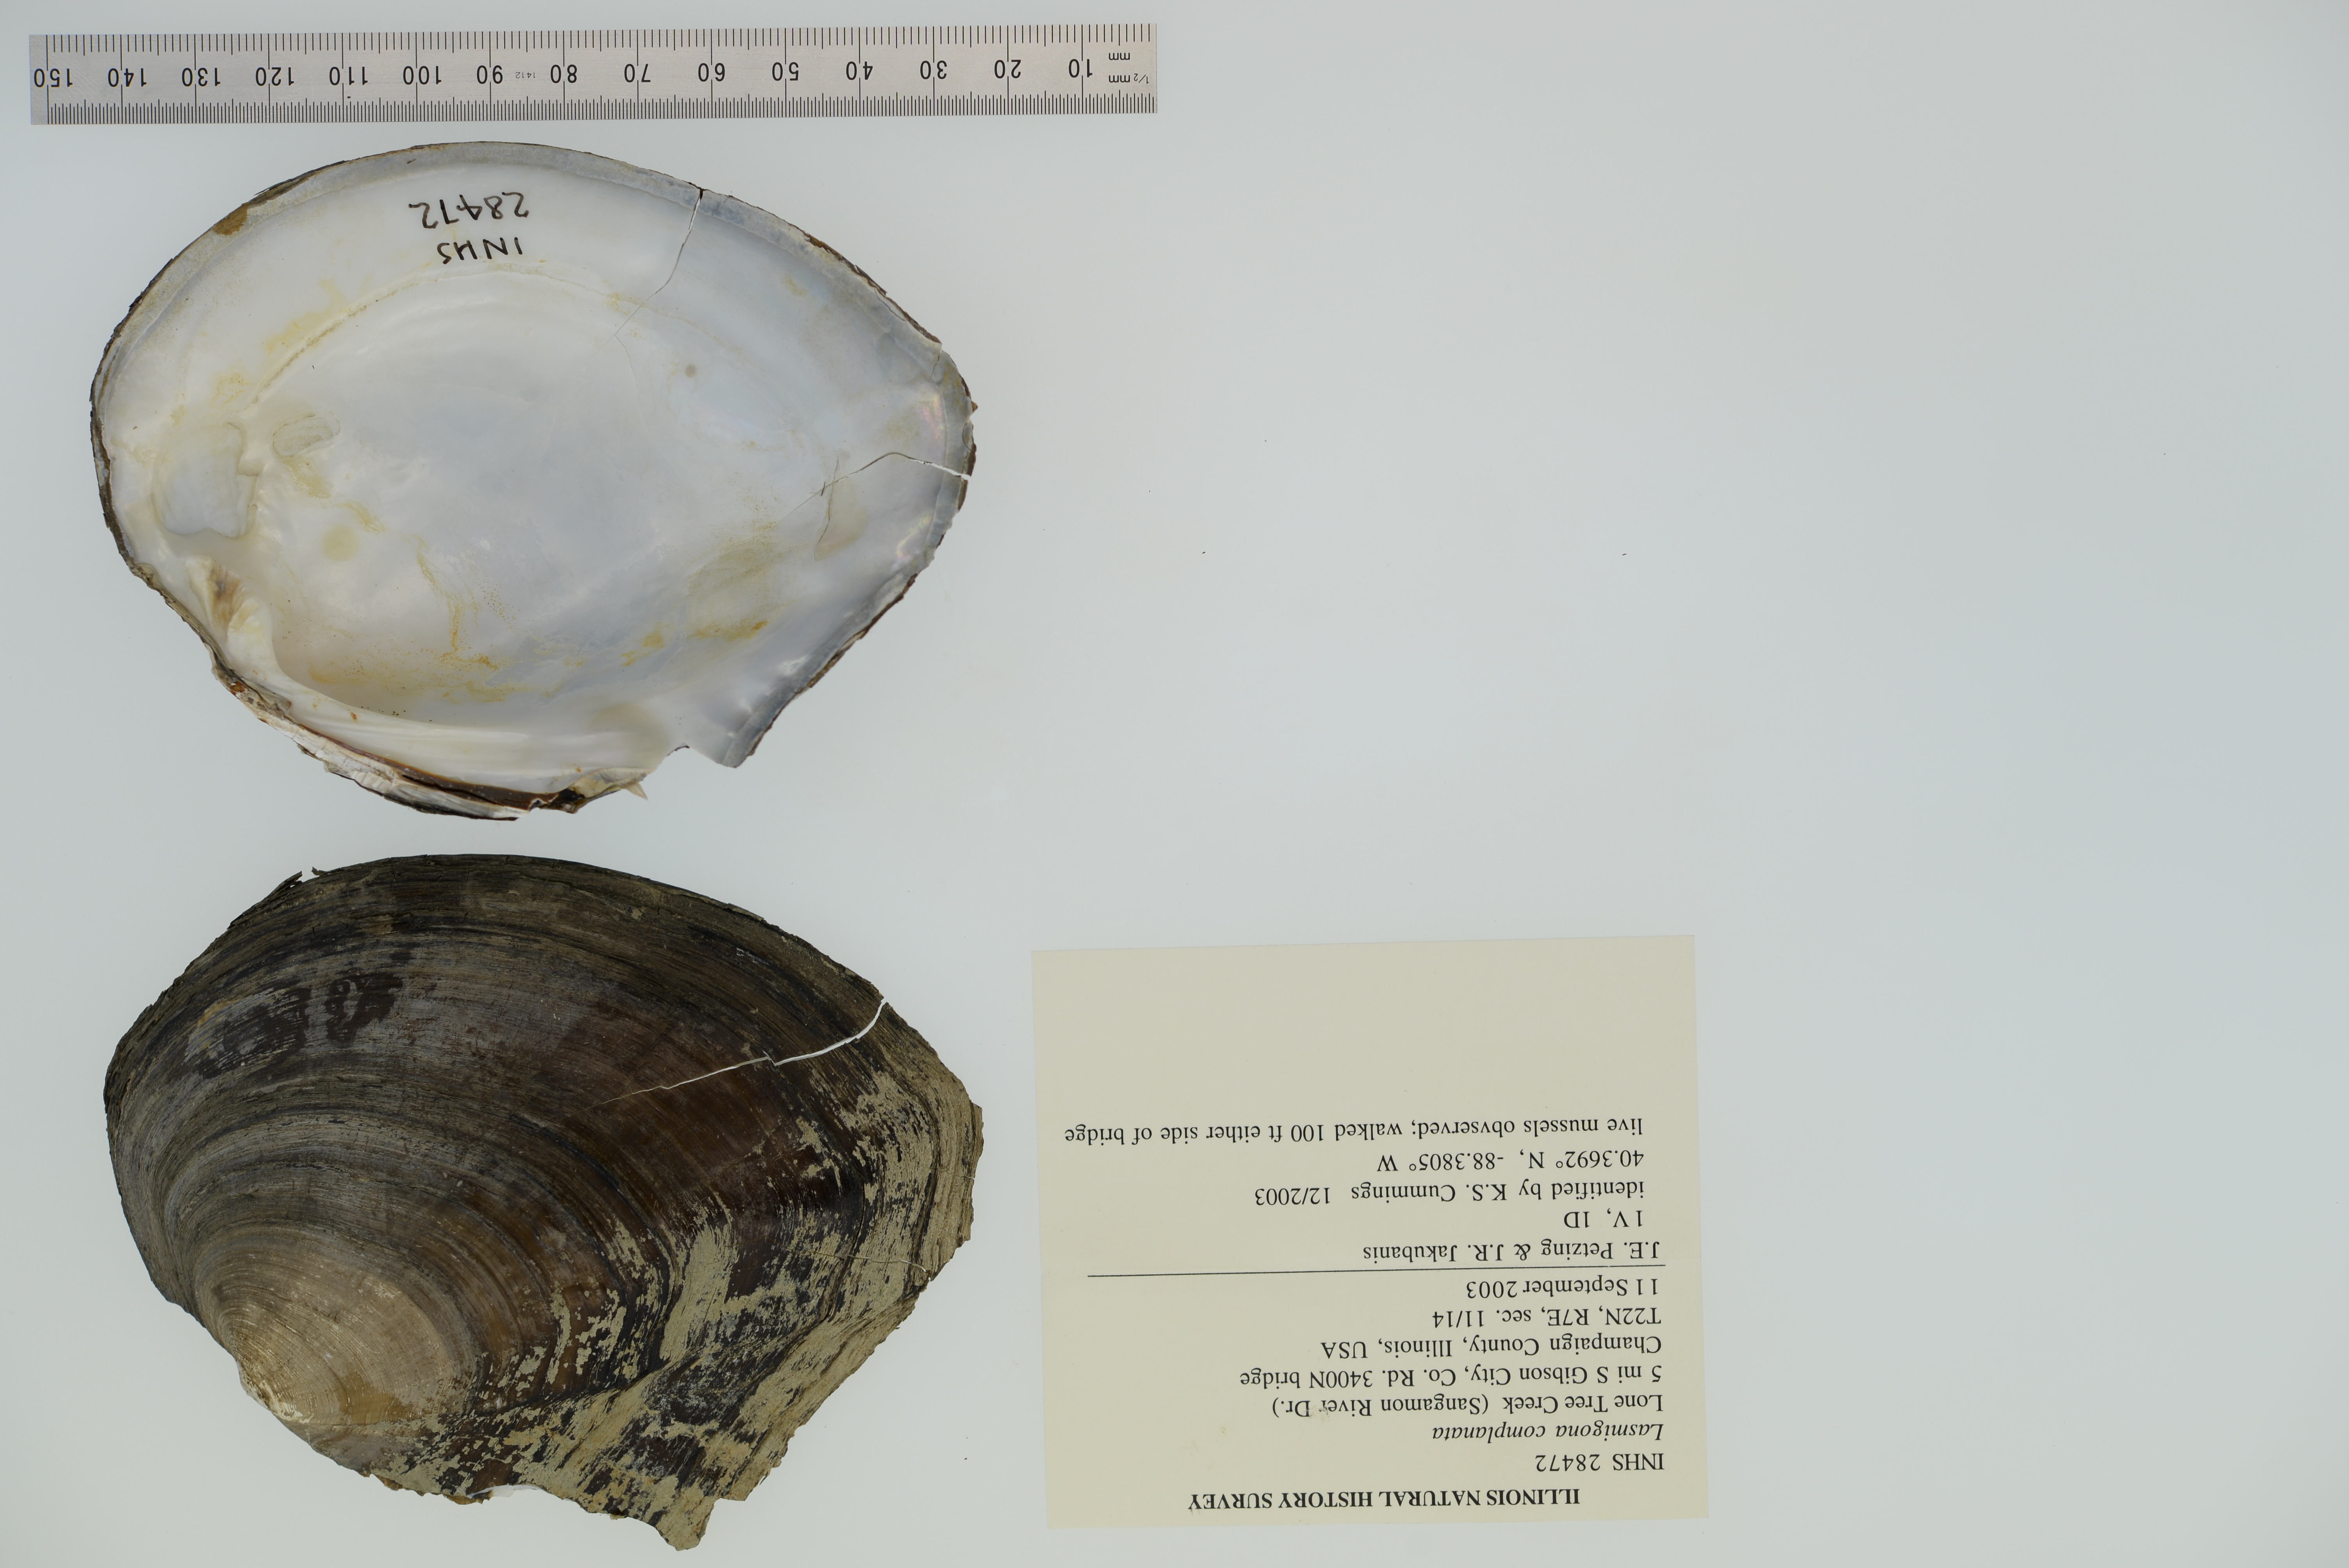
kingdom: Animalia
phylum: Mollusca
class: Bivalvia
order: Unionida
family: Unionidae
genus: Lasmigona
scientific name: Lasmigona complanata
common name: White heelsplitter
